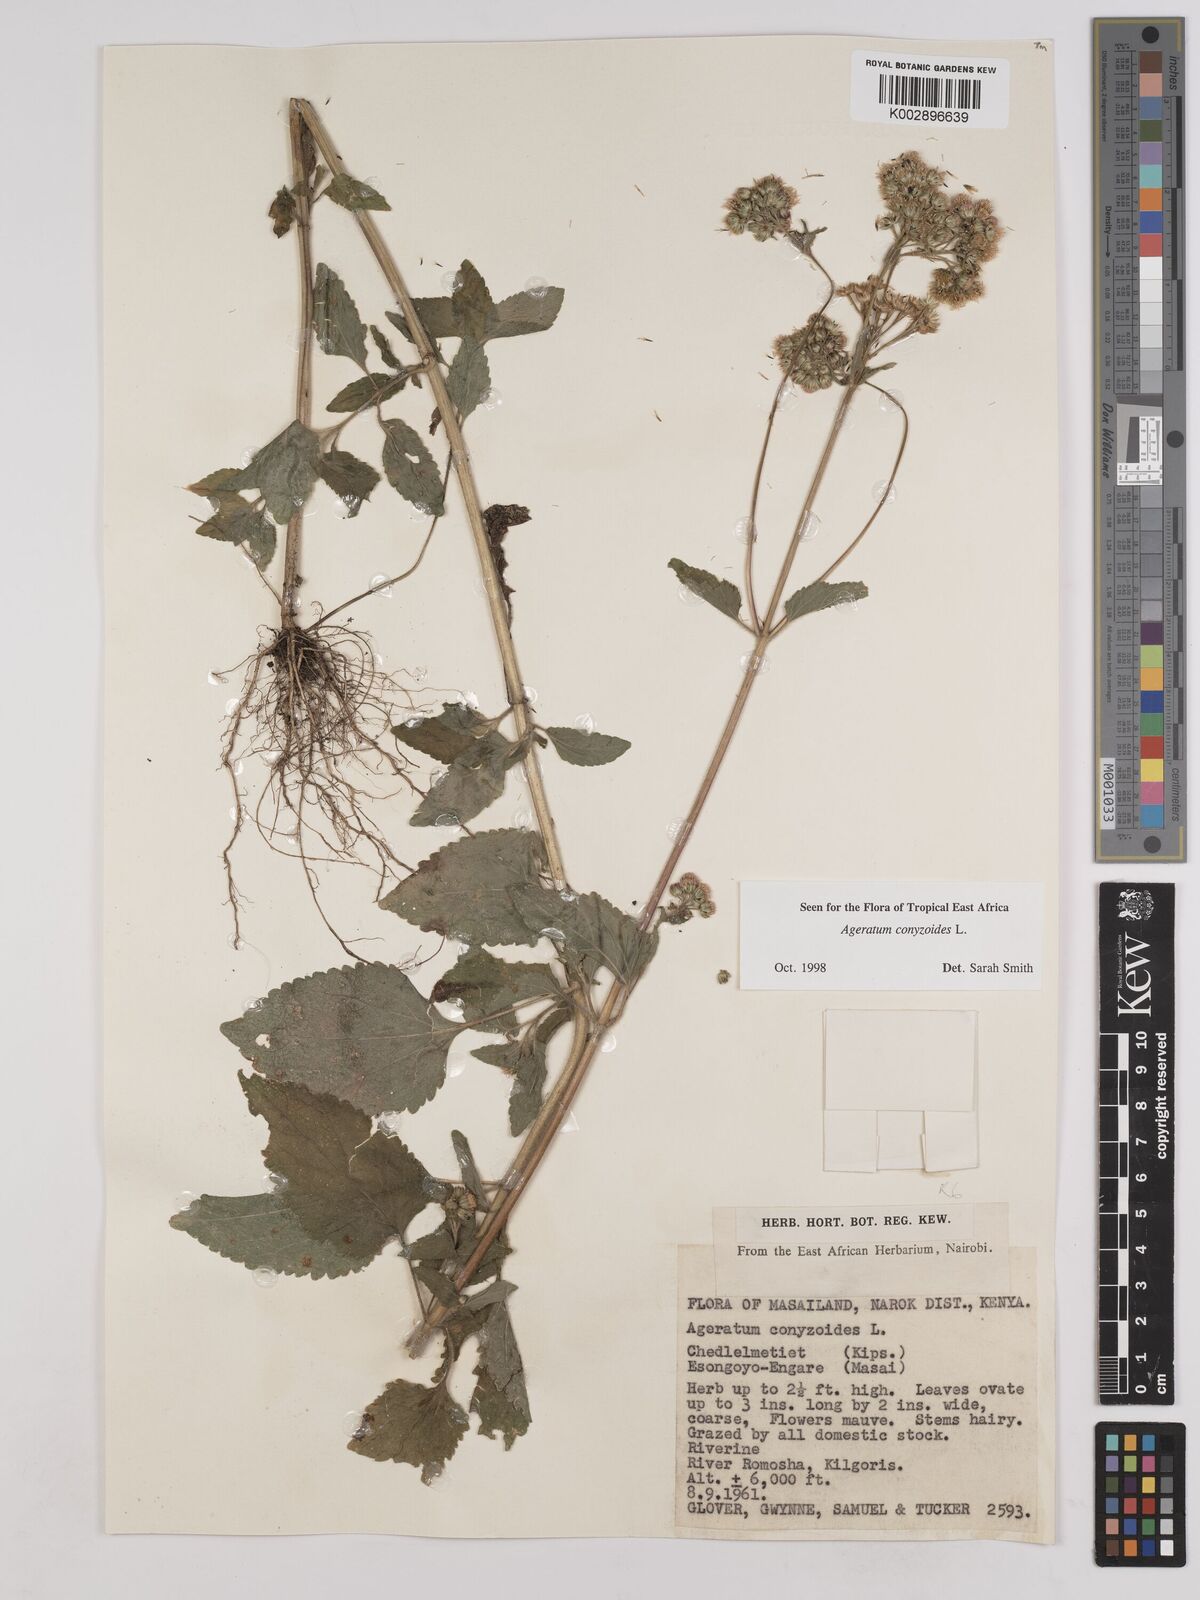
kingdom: Plantae
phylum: Tracheophyta
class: Magnoliopsida
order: Asterales
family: Asteraceae
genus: Ageratum
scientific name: Ageratum conyzoides
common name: Tropical whiteweed
